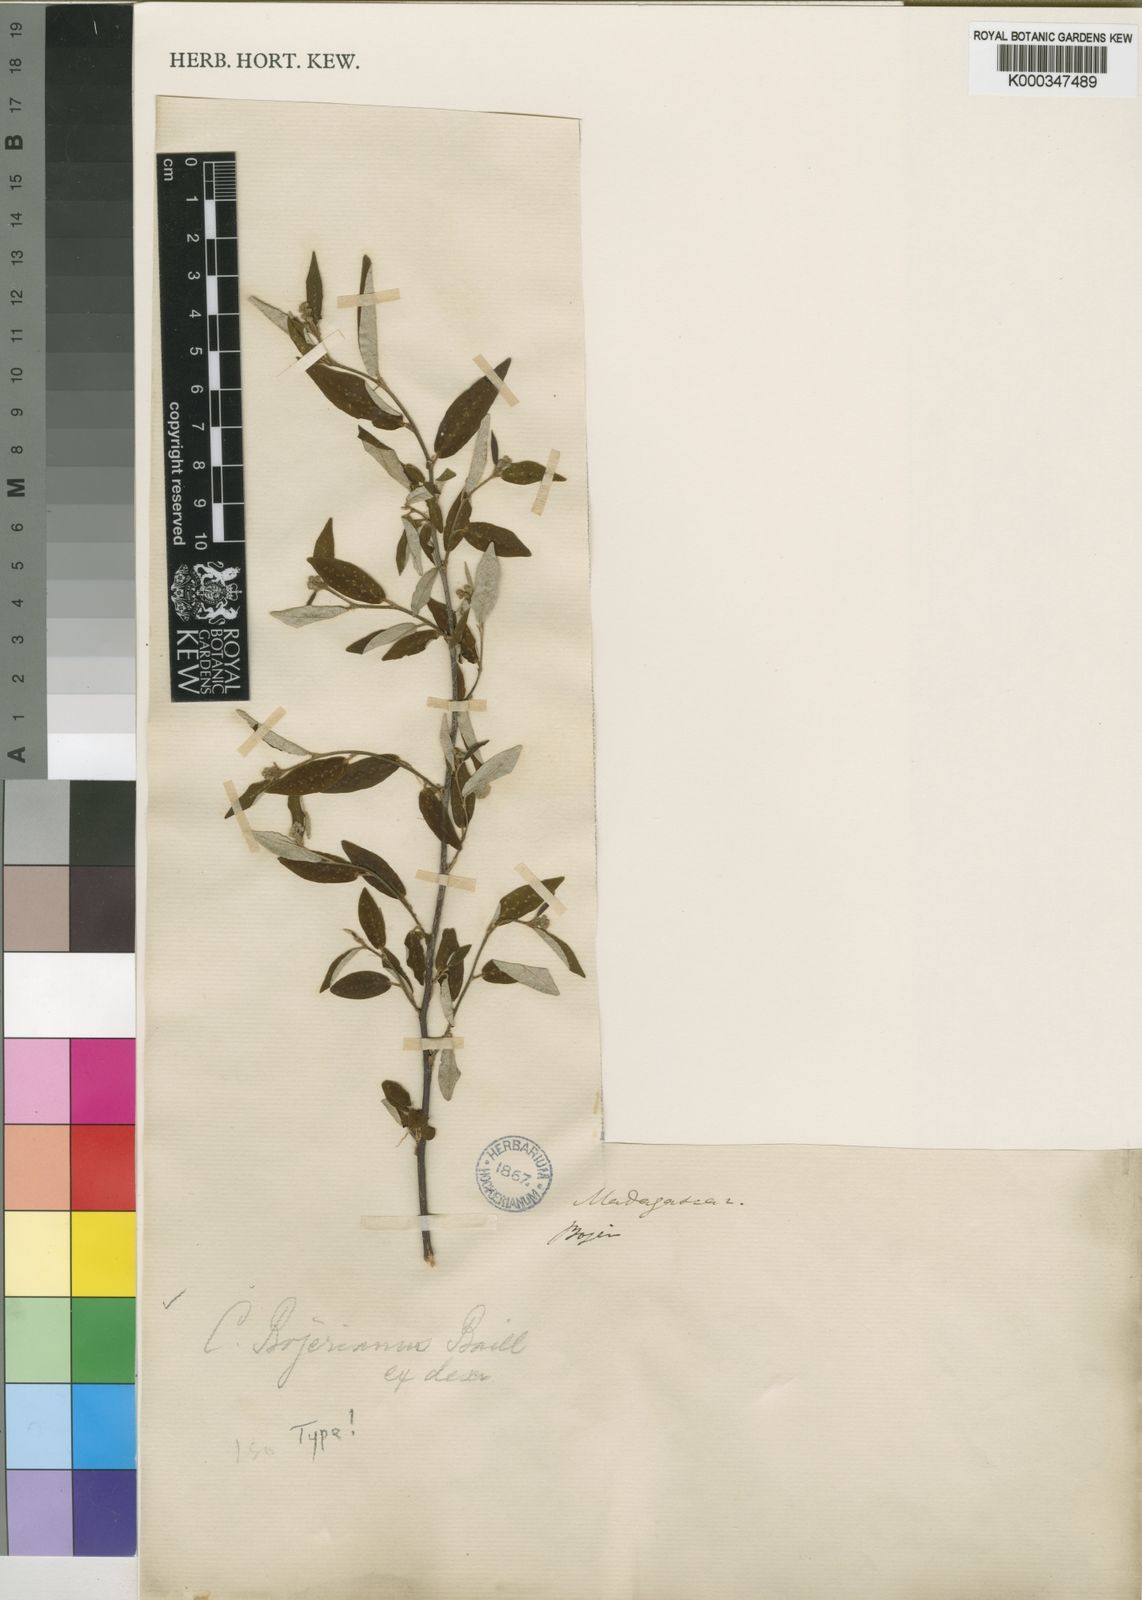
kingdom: Plantae
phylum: Tracheophyta
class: Magnoliopsida
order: Malpighiales
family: Euphorbiaceae
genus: Croton
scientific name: Croton bojerianus
